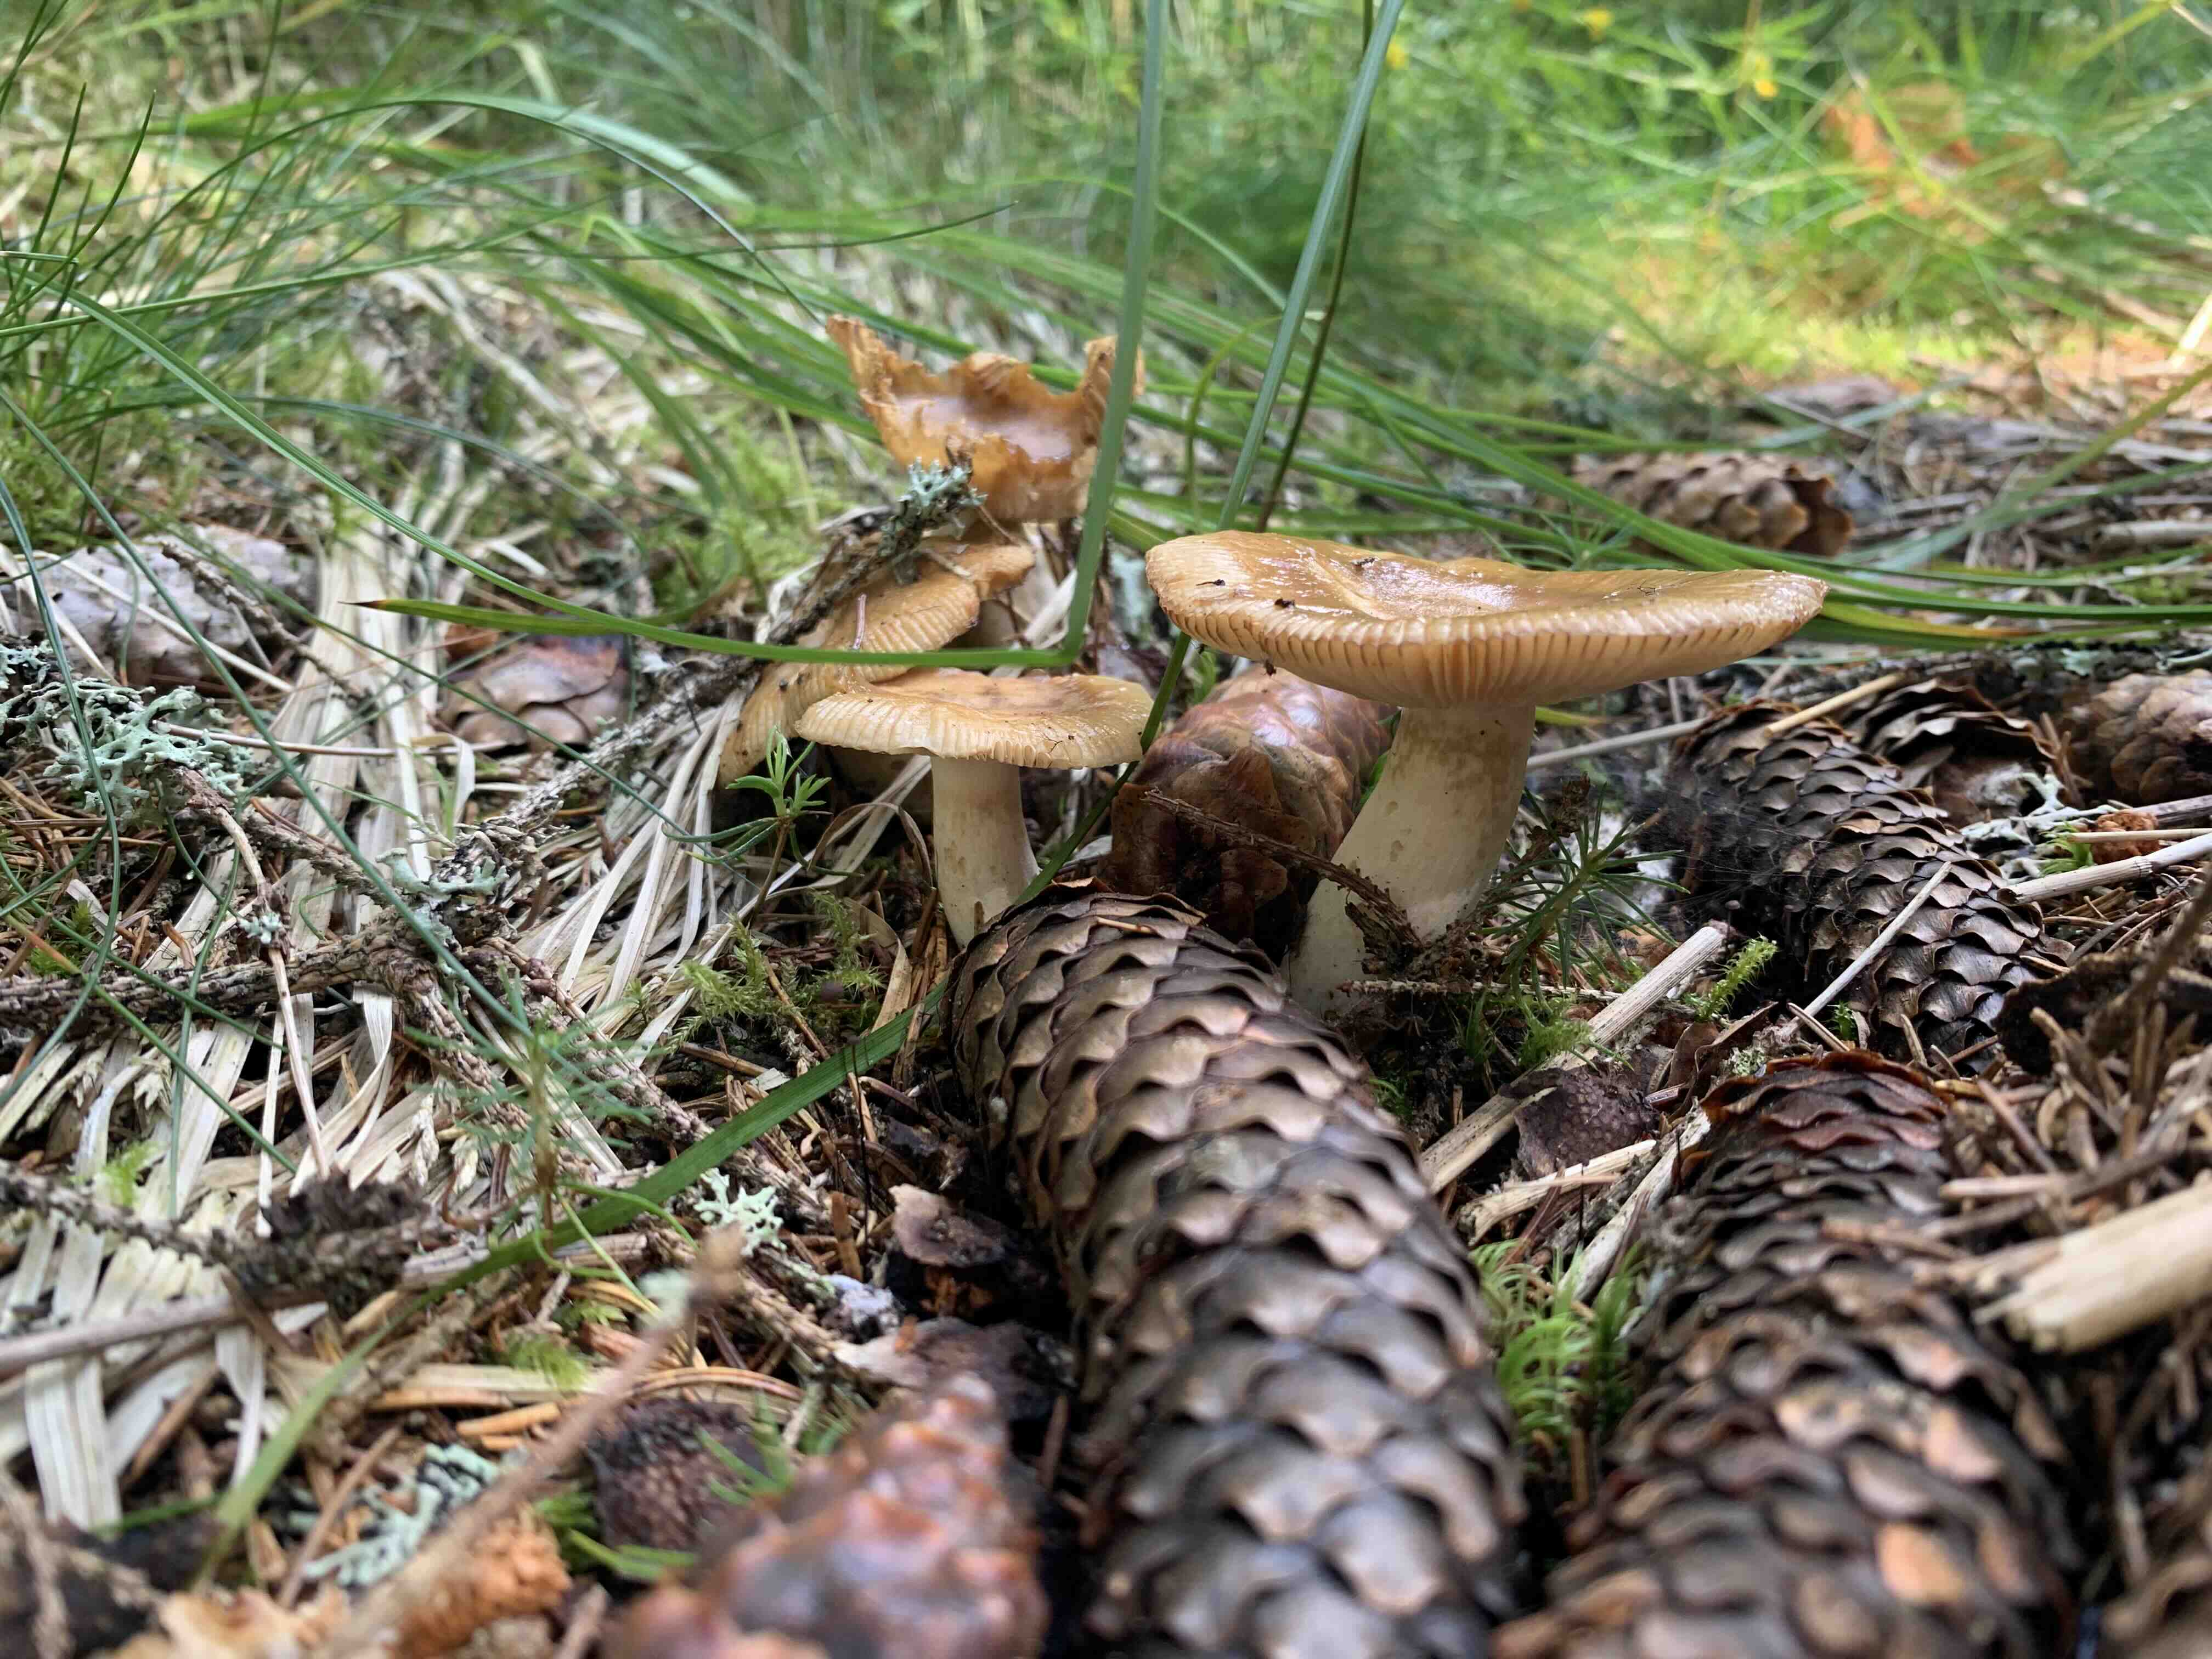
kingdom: Fungi
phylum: Basidiomycota
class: Agaricomycetes
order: Russulales
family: Russulaceae
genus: Russula
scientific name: Russula
